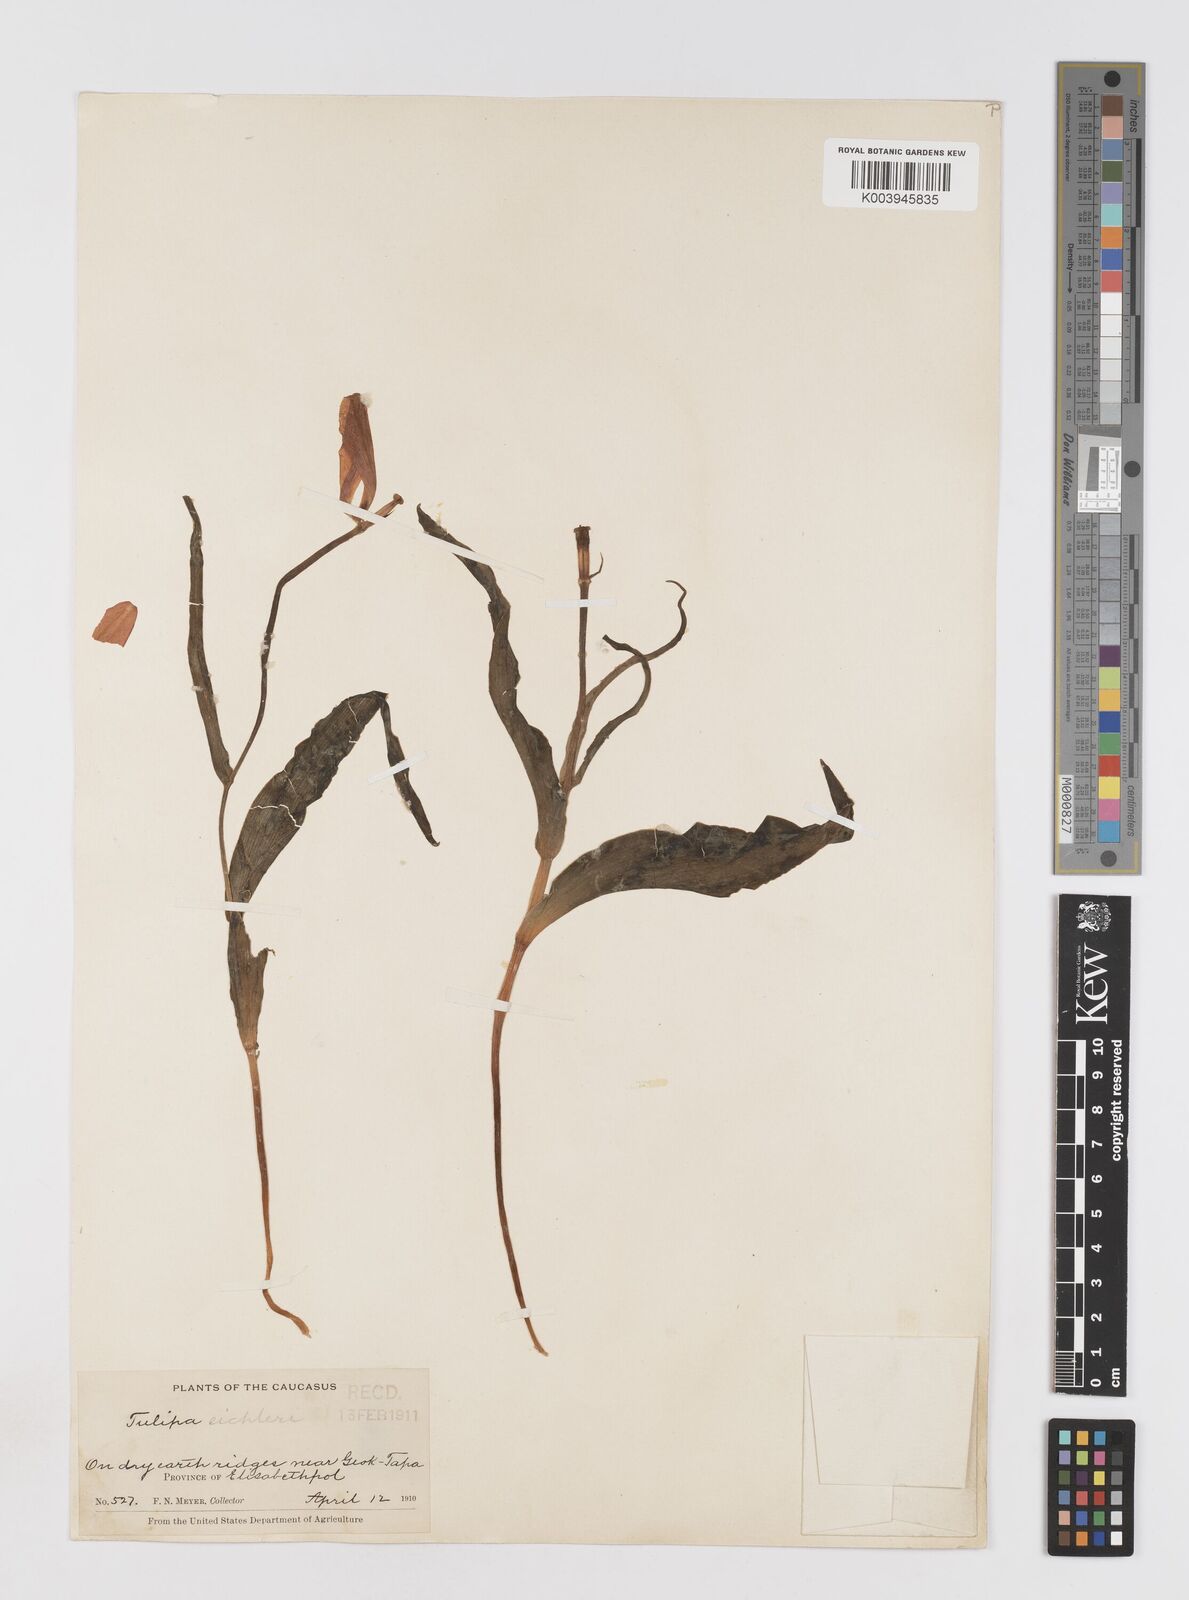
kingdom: Plantae
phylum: Tracheophyta
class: Liliopsida
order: Liliales
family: Liliaceae
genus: Tulipa
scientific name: Tulipa undulatifolia
